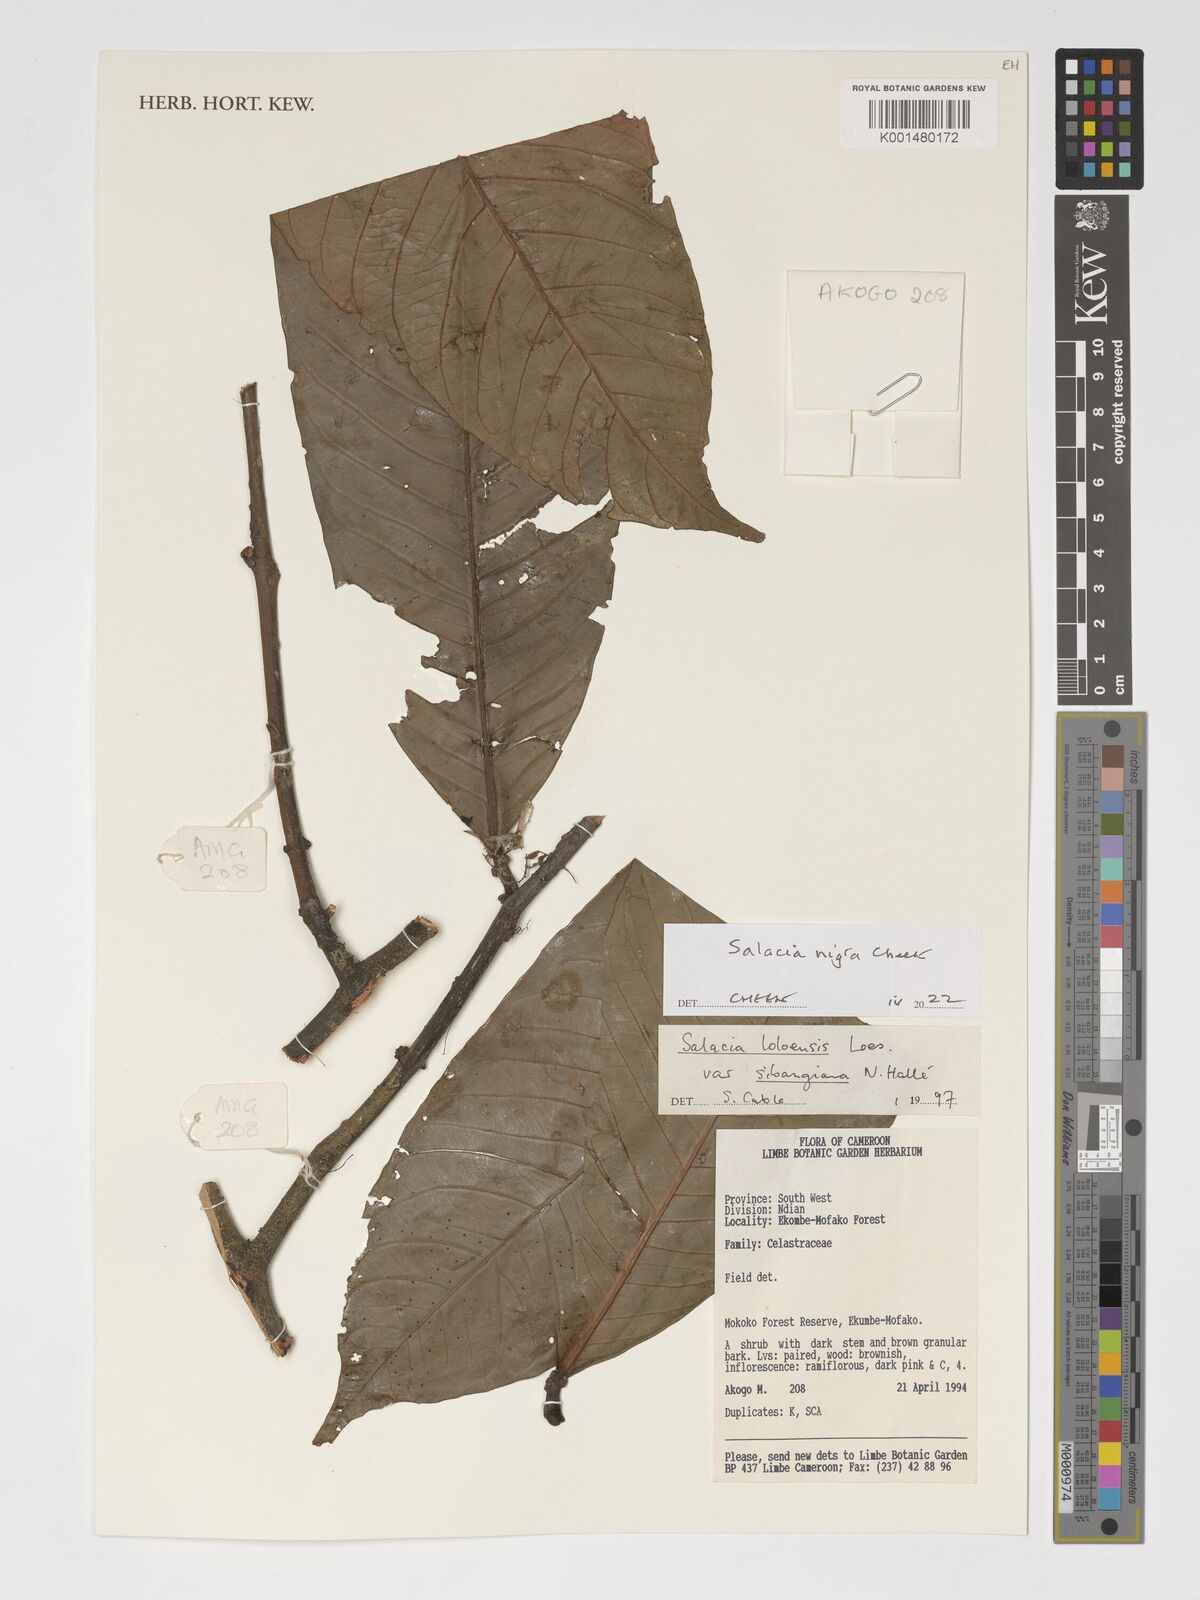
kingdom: Plantae
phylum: Tracheophyta
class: Magnoliopsida
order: Celastrales
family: Celastraceae
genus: Salacia
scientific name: Salacia nigra
